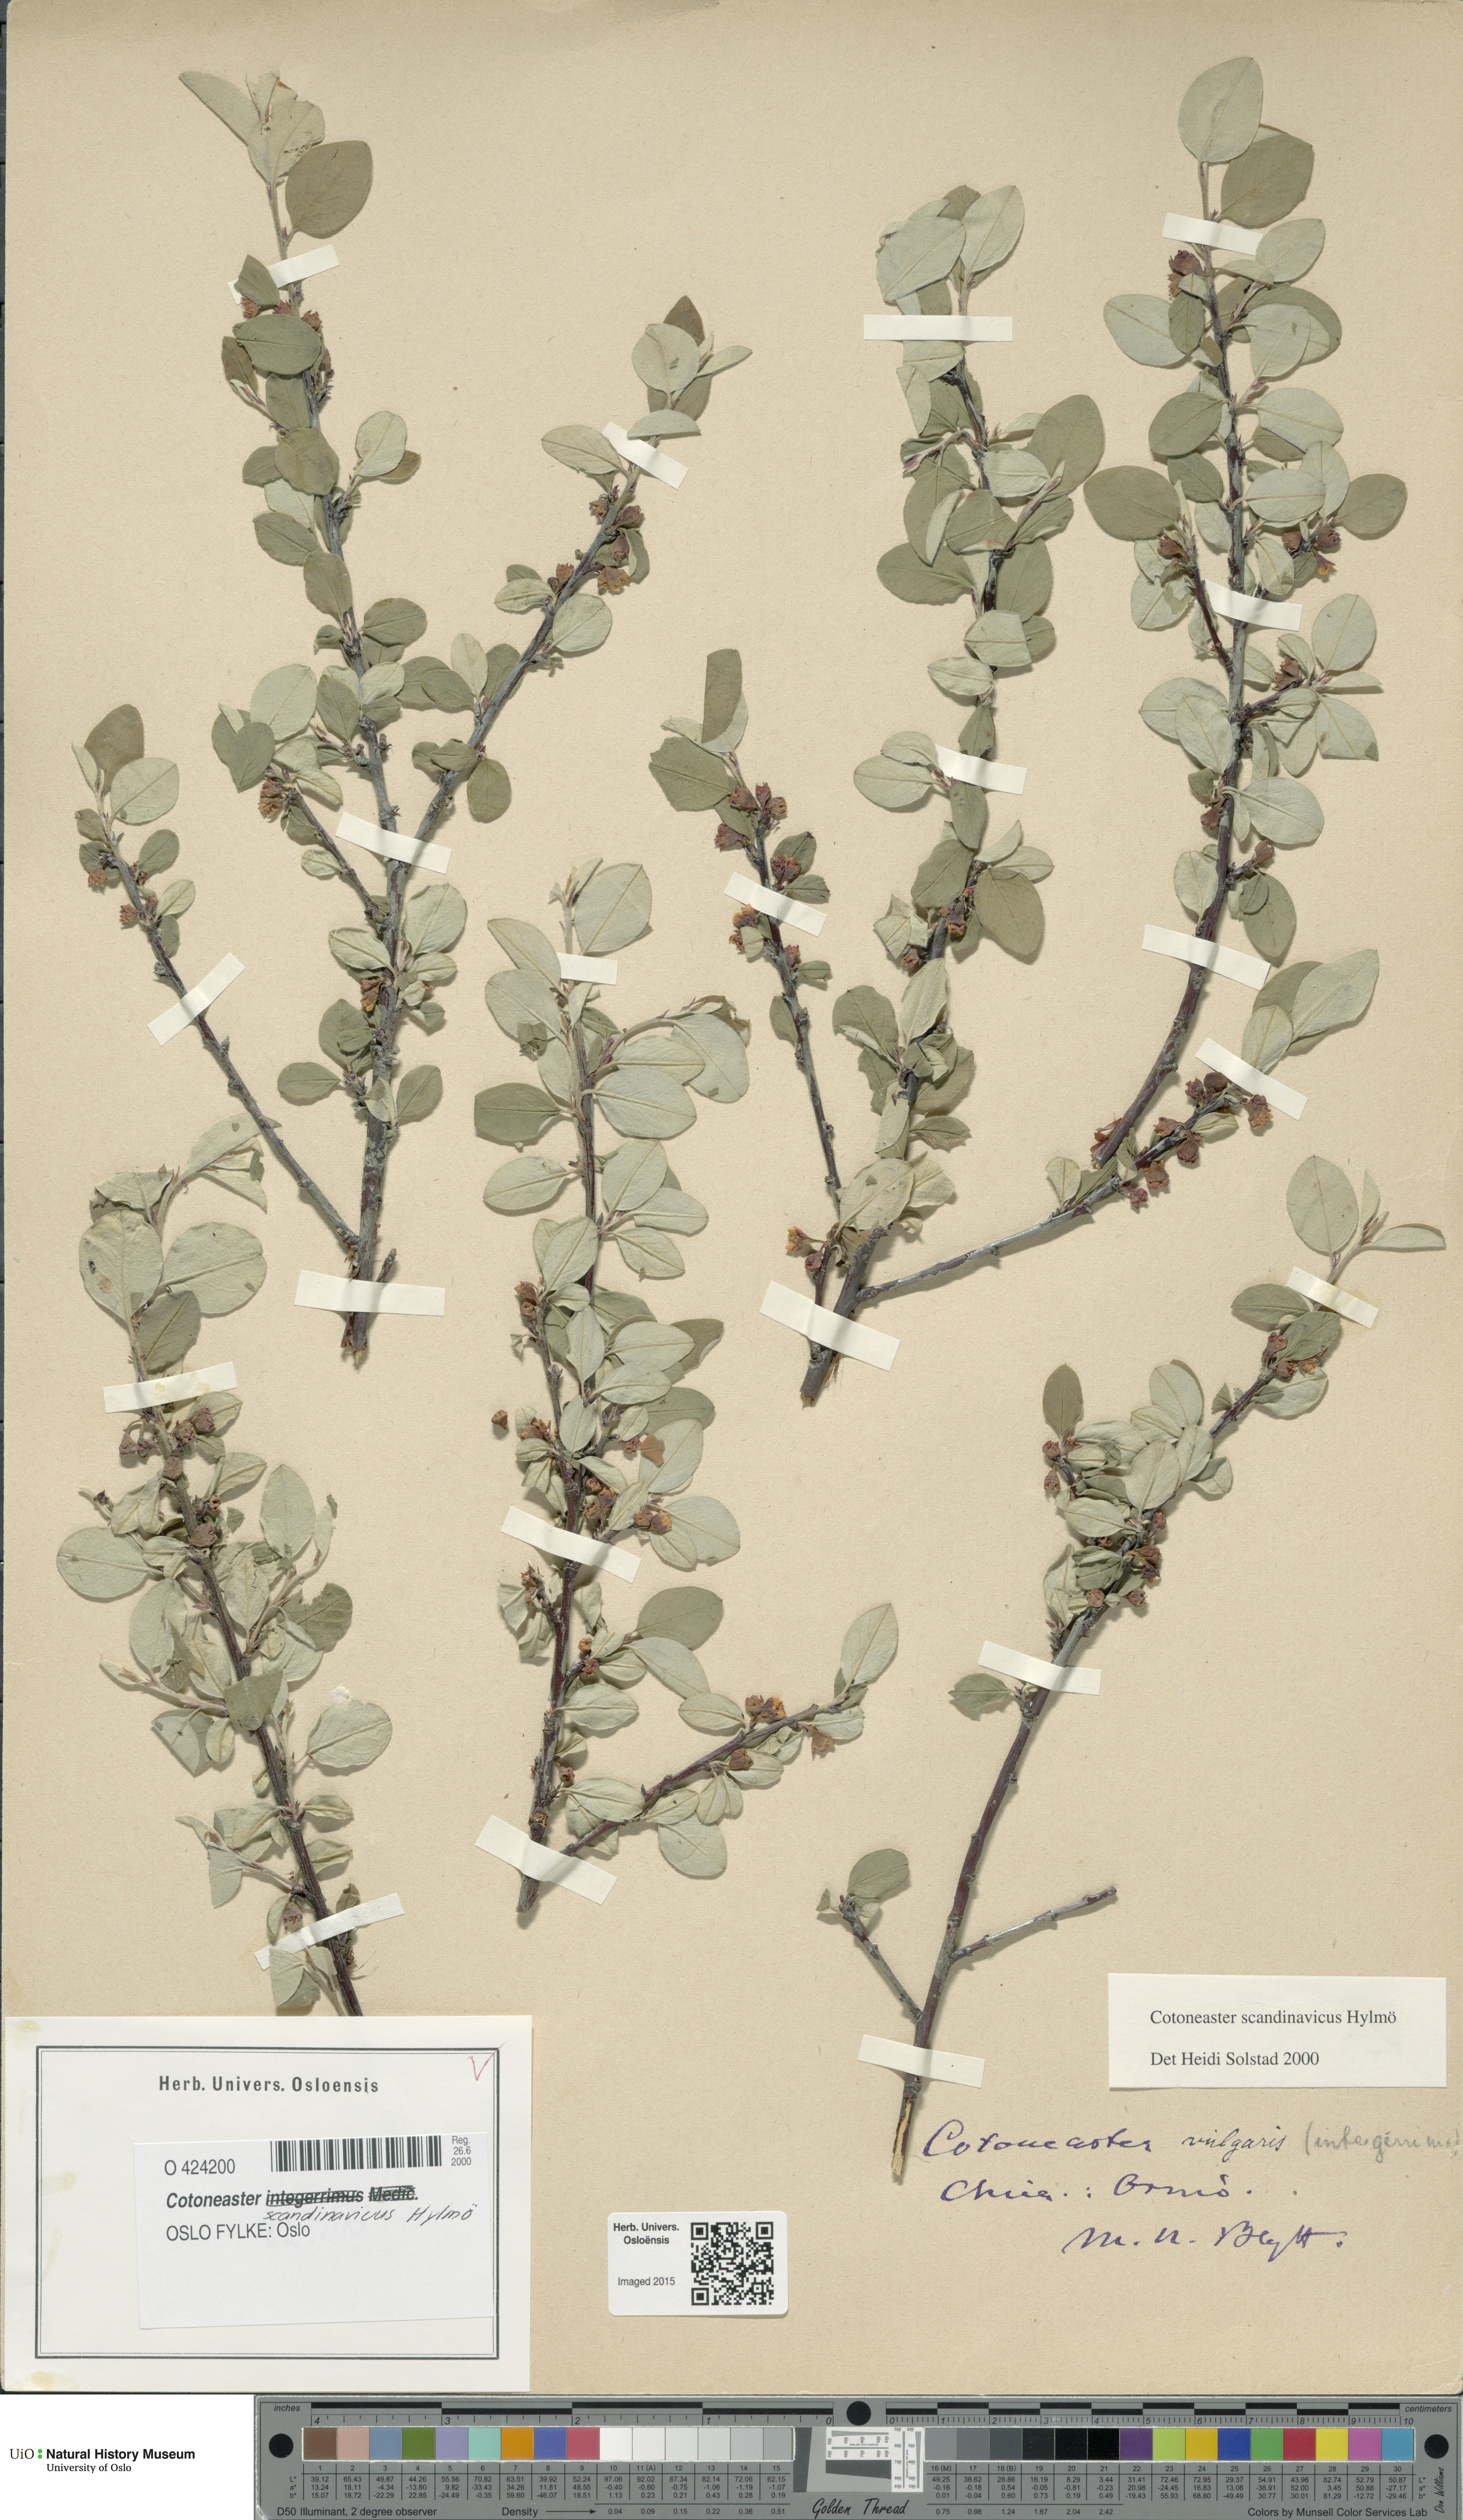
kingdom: Plantae
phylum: Tracheophyta
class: Magnoliopsida
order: Rosales
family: Rosaceae
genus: Cotoneaster
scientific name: Cotoneaster integerrimus
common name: Wild cotoneaster
